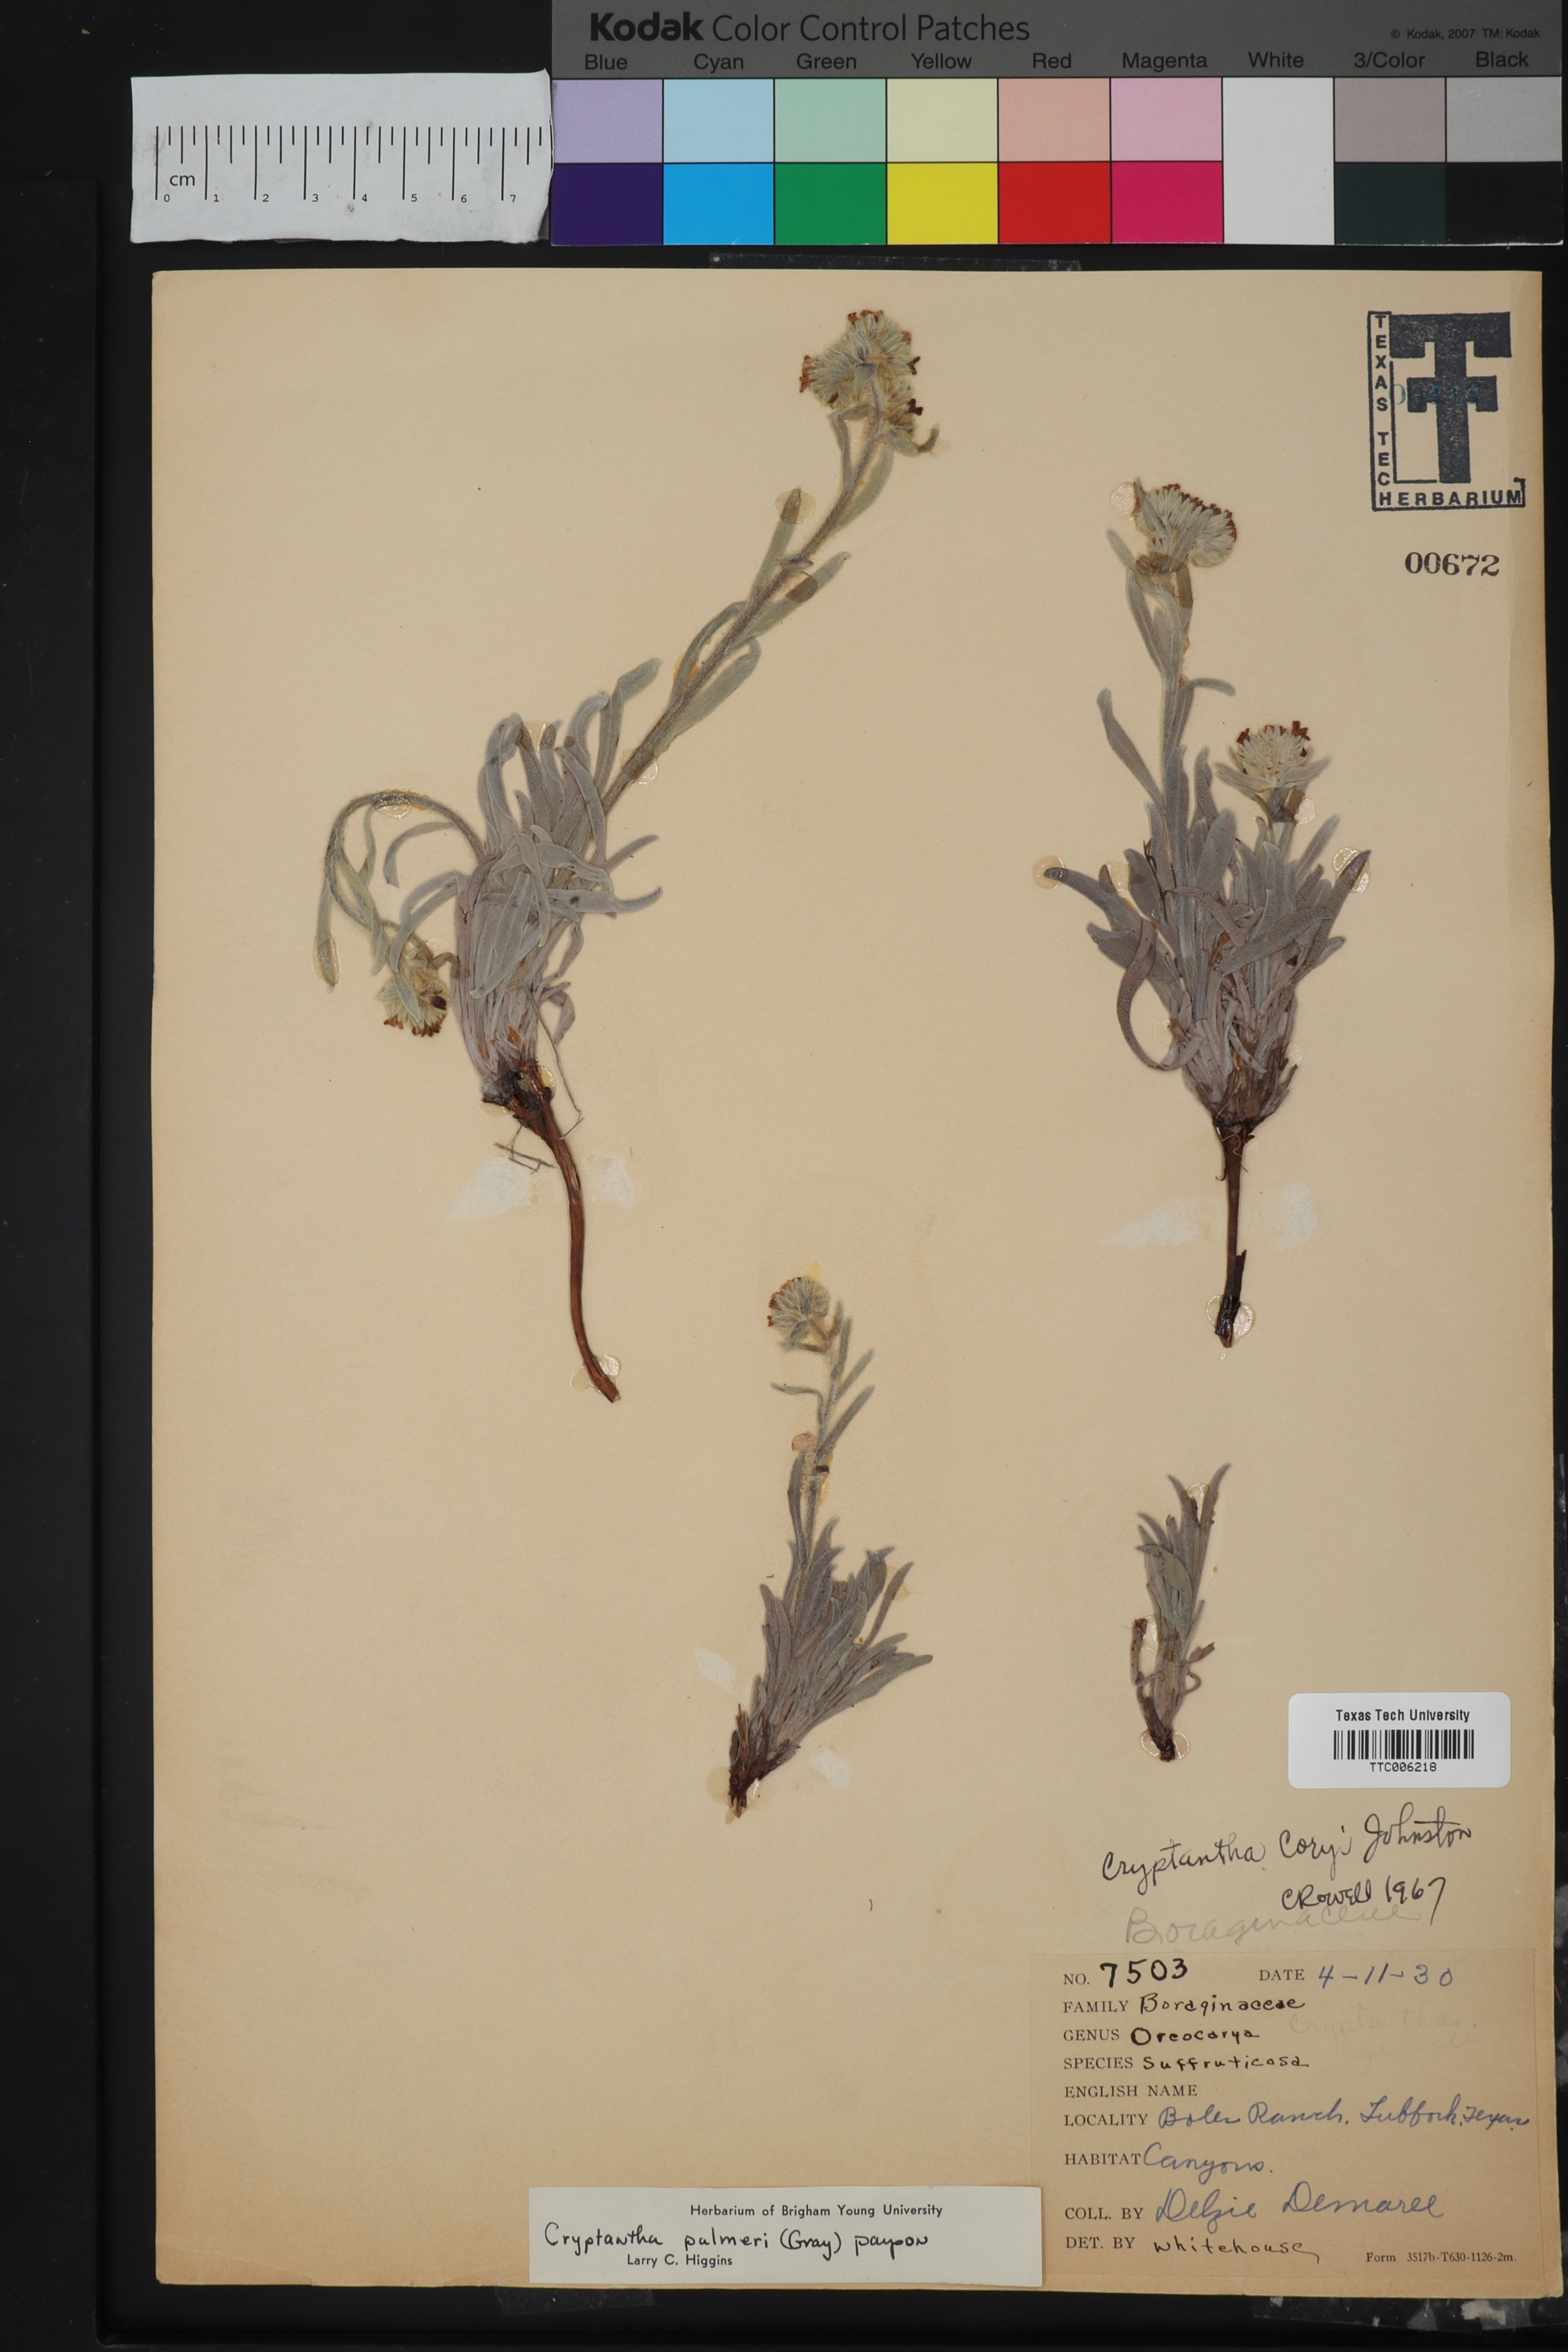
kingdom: Plantae
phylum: Tracheophyta
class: Magnoliopsida
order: Boraginales
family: Boraginaceae
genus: Oreocarya
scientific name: Oreocarya palmeri
